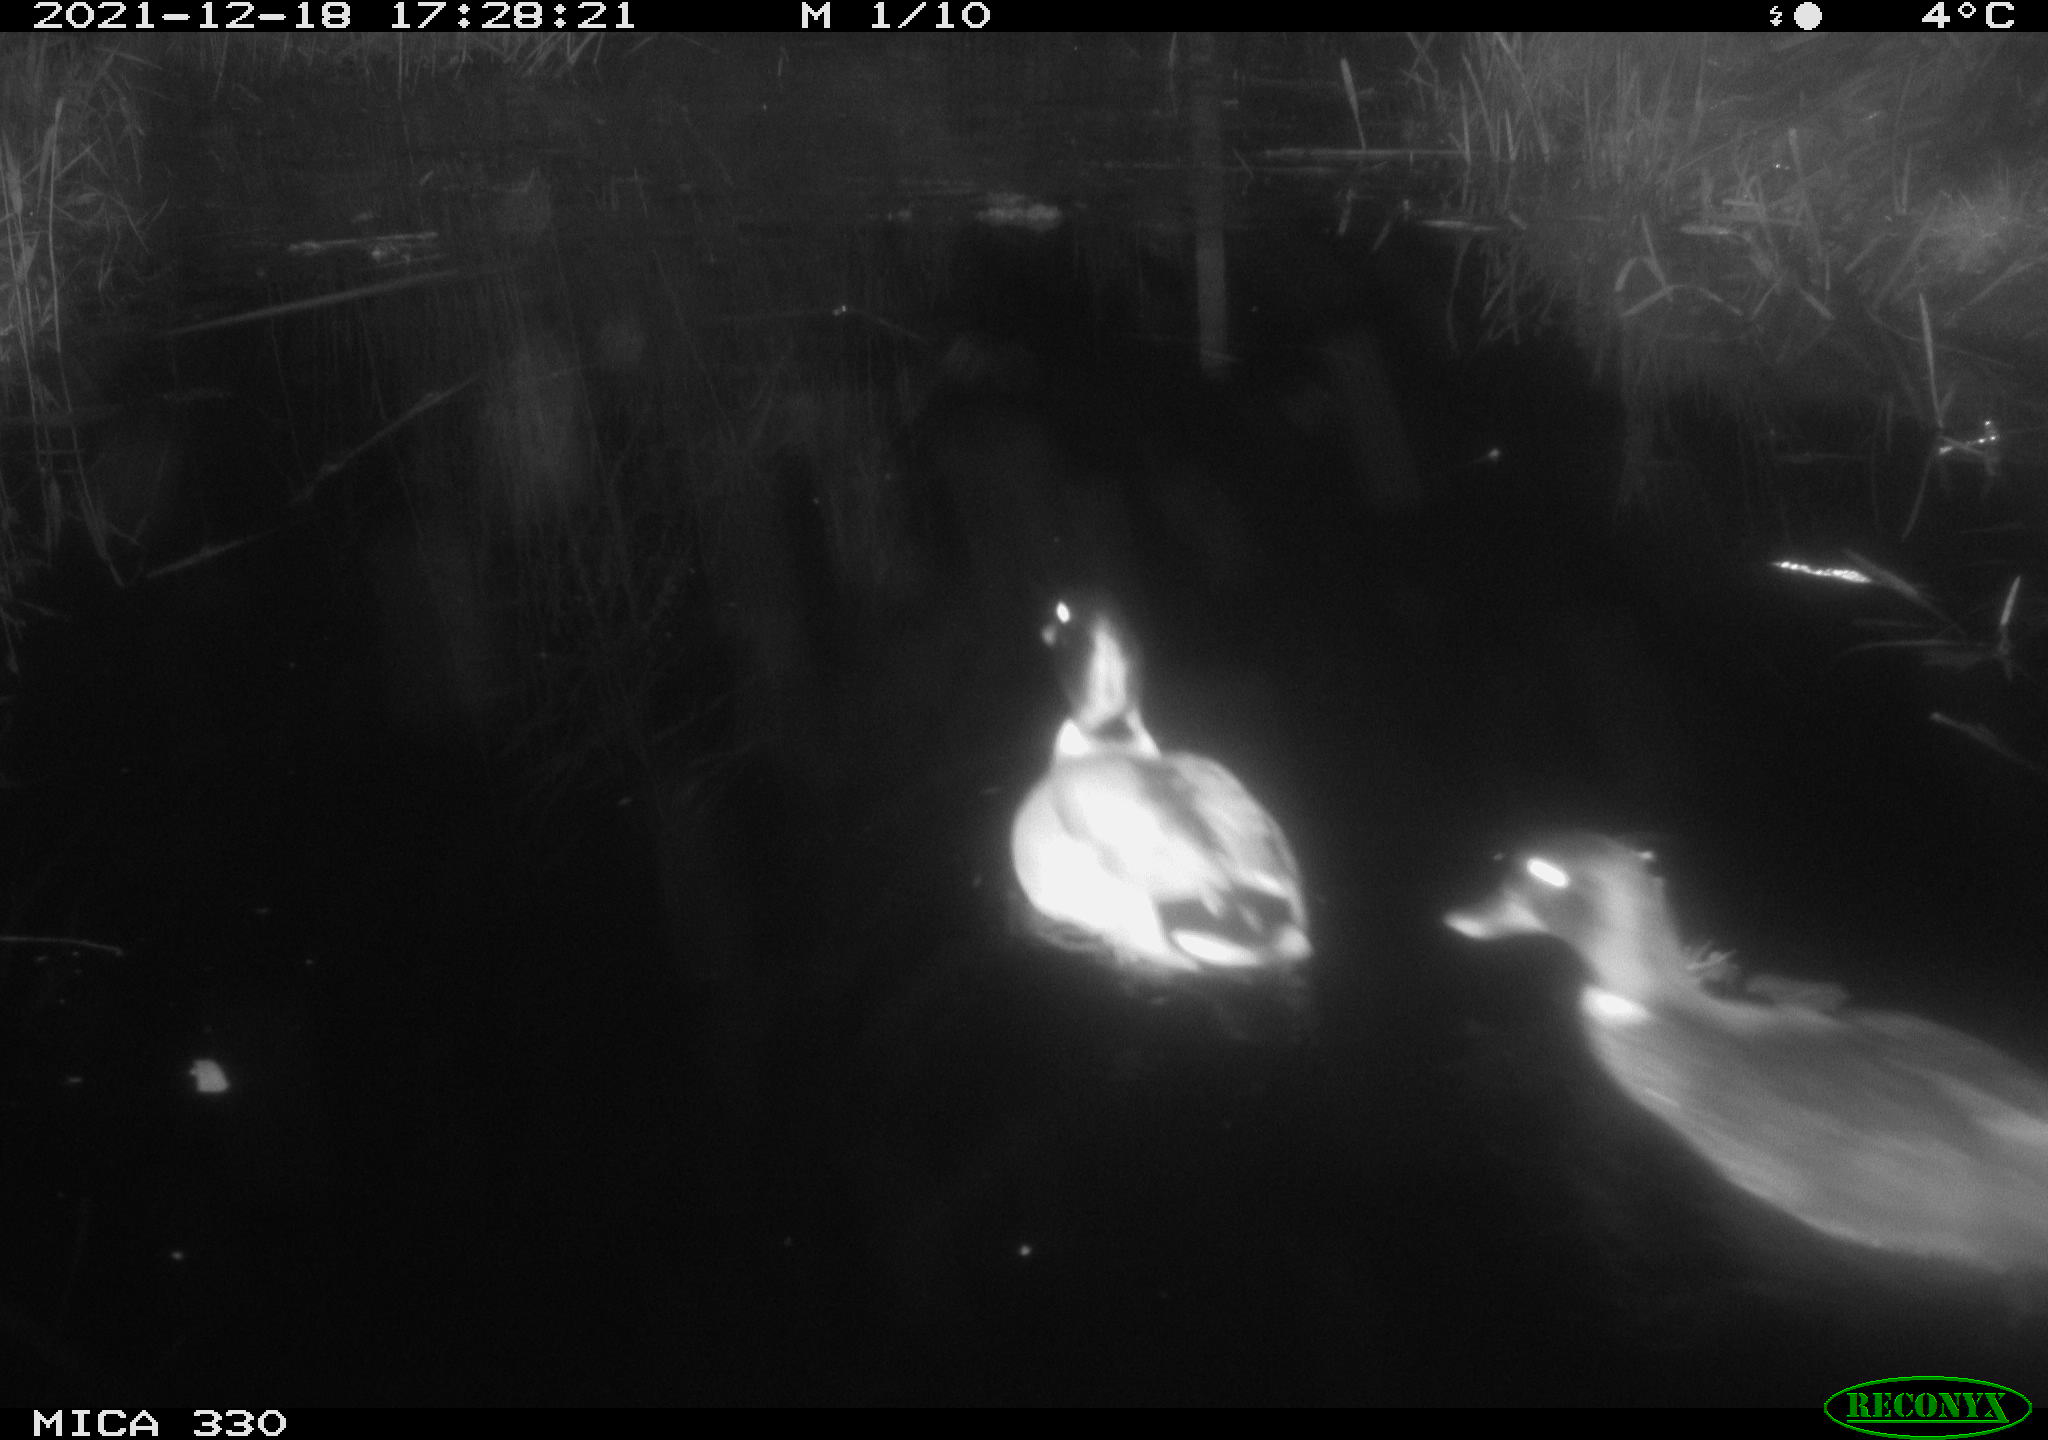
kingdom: Animalia
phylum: Chordata
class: Aves
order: Anseriformes
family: Anatidae
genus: Anas
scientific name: Anas platyrhynchos
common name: Mallard
